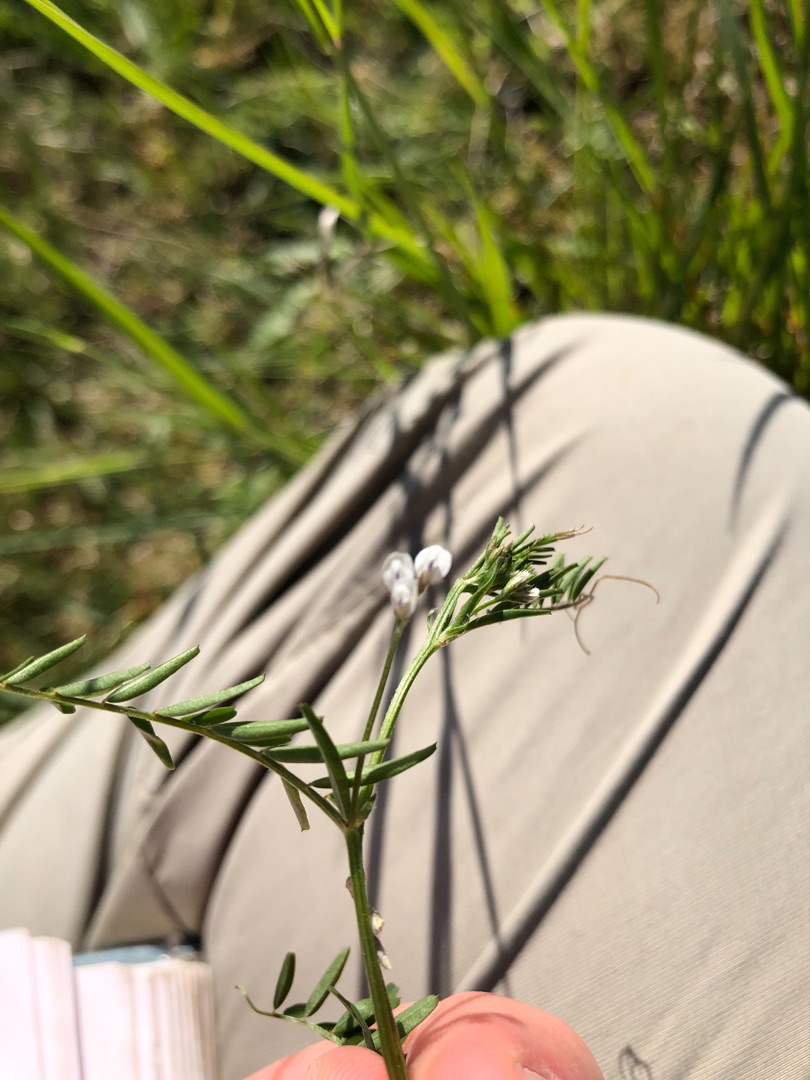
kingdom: Plantae
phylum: Tracheophyta
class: Magnoliopsida
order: Fabales
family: Fabaceae
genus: Vicia
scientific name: Vicia hirsuta
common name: Tofrøet vikke
